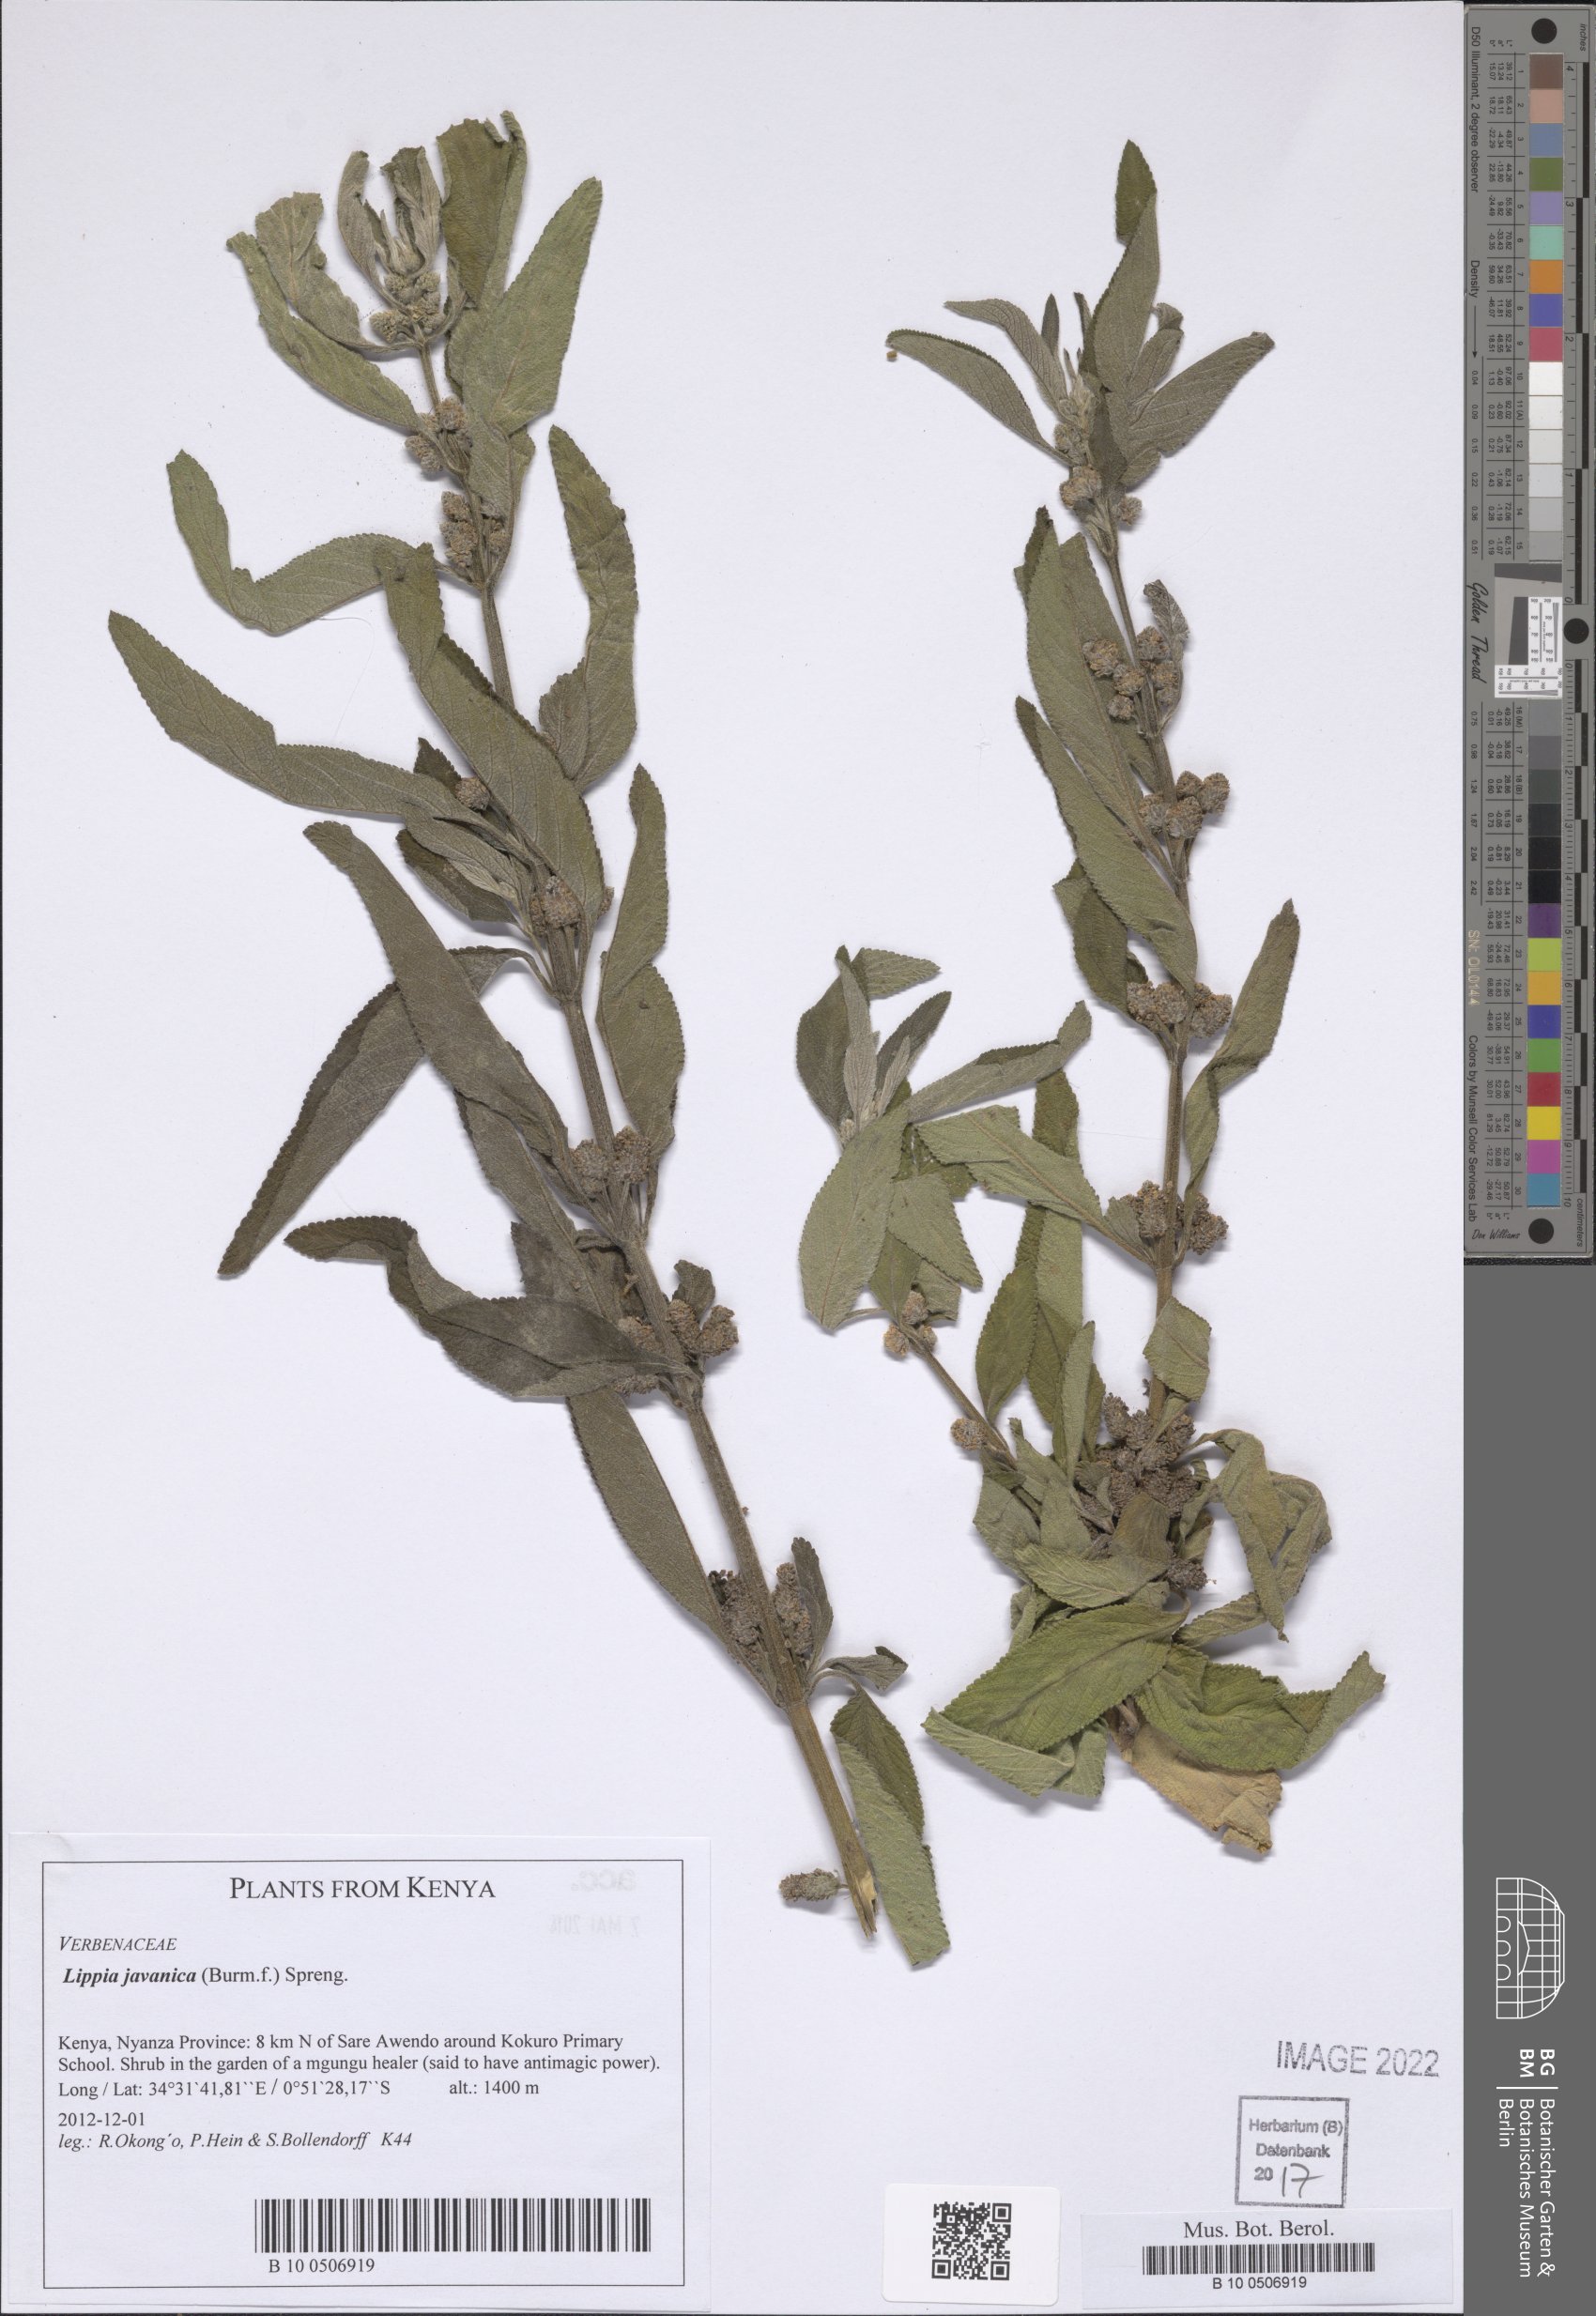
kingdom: Plantae
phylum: Tracheophyta
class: Magnoliopsida
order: Lamiales
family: Verbenaceae
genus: Lippia
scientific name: Lippia javanica
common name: Lemonbush
